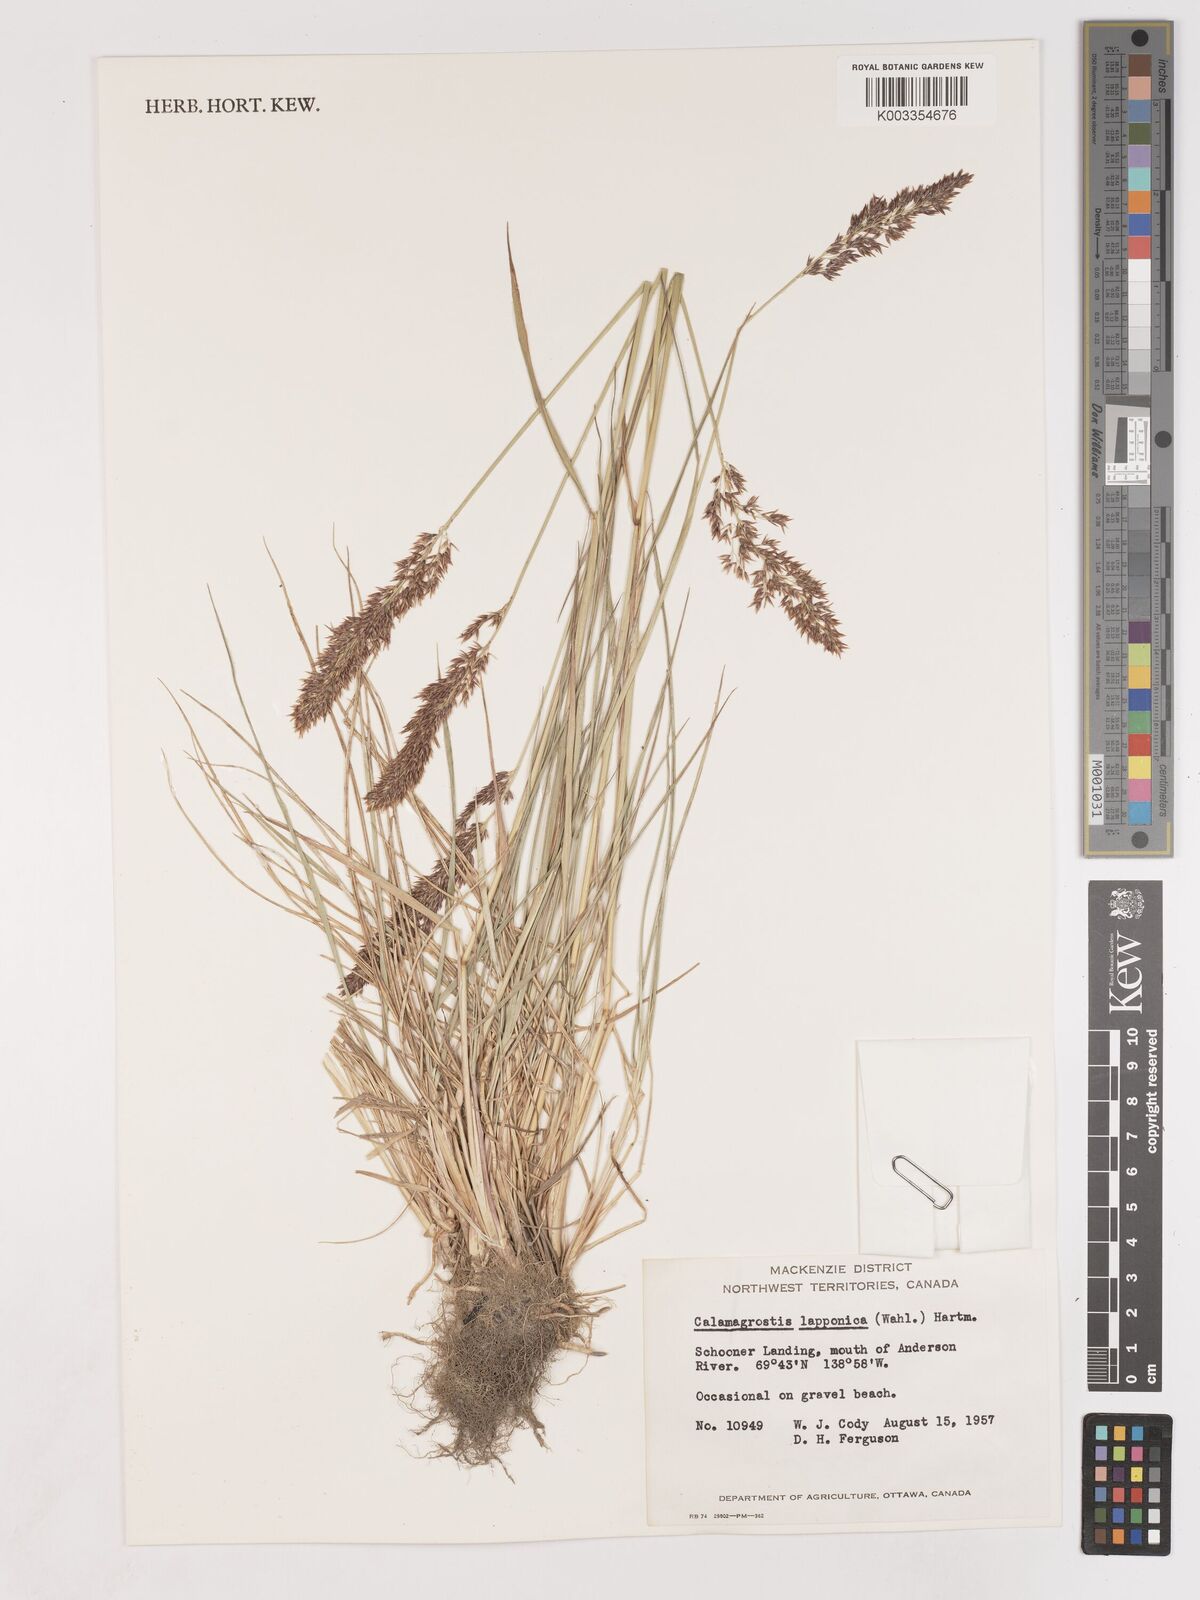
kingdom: Plantae
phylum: Tracheophyta
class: Liliopsida
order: Poales
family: Poaceae
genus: Calamagrostis
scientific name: Calamagrostis lapponica
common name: Lapland reedgrass
